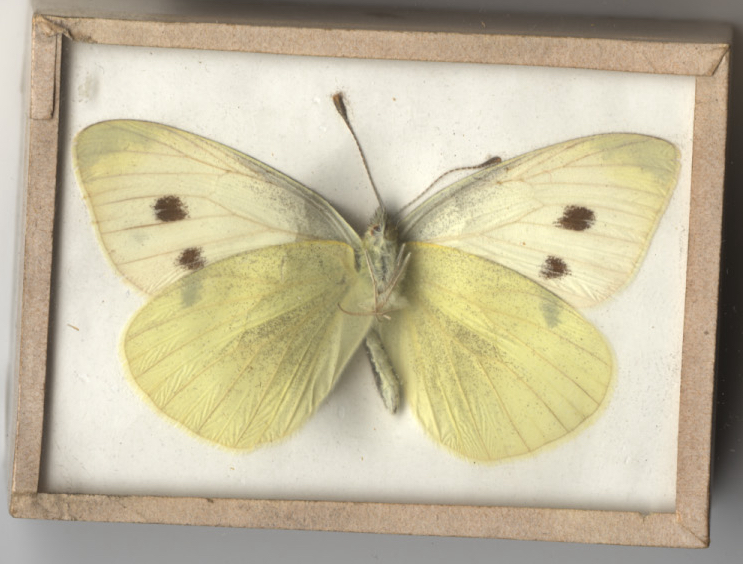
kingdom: Animalia
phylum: Arthropoda
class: Insecta
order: Lepidoptera
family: Pieridae
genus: Pieris
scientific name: Pieris rapae
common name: Cabbage White
